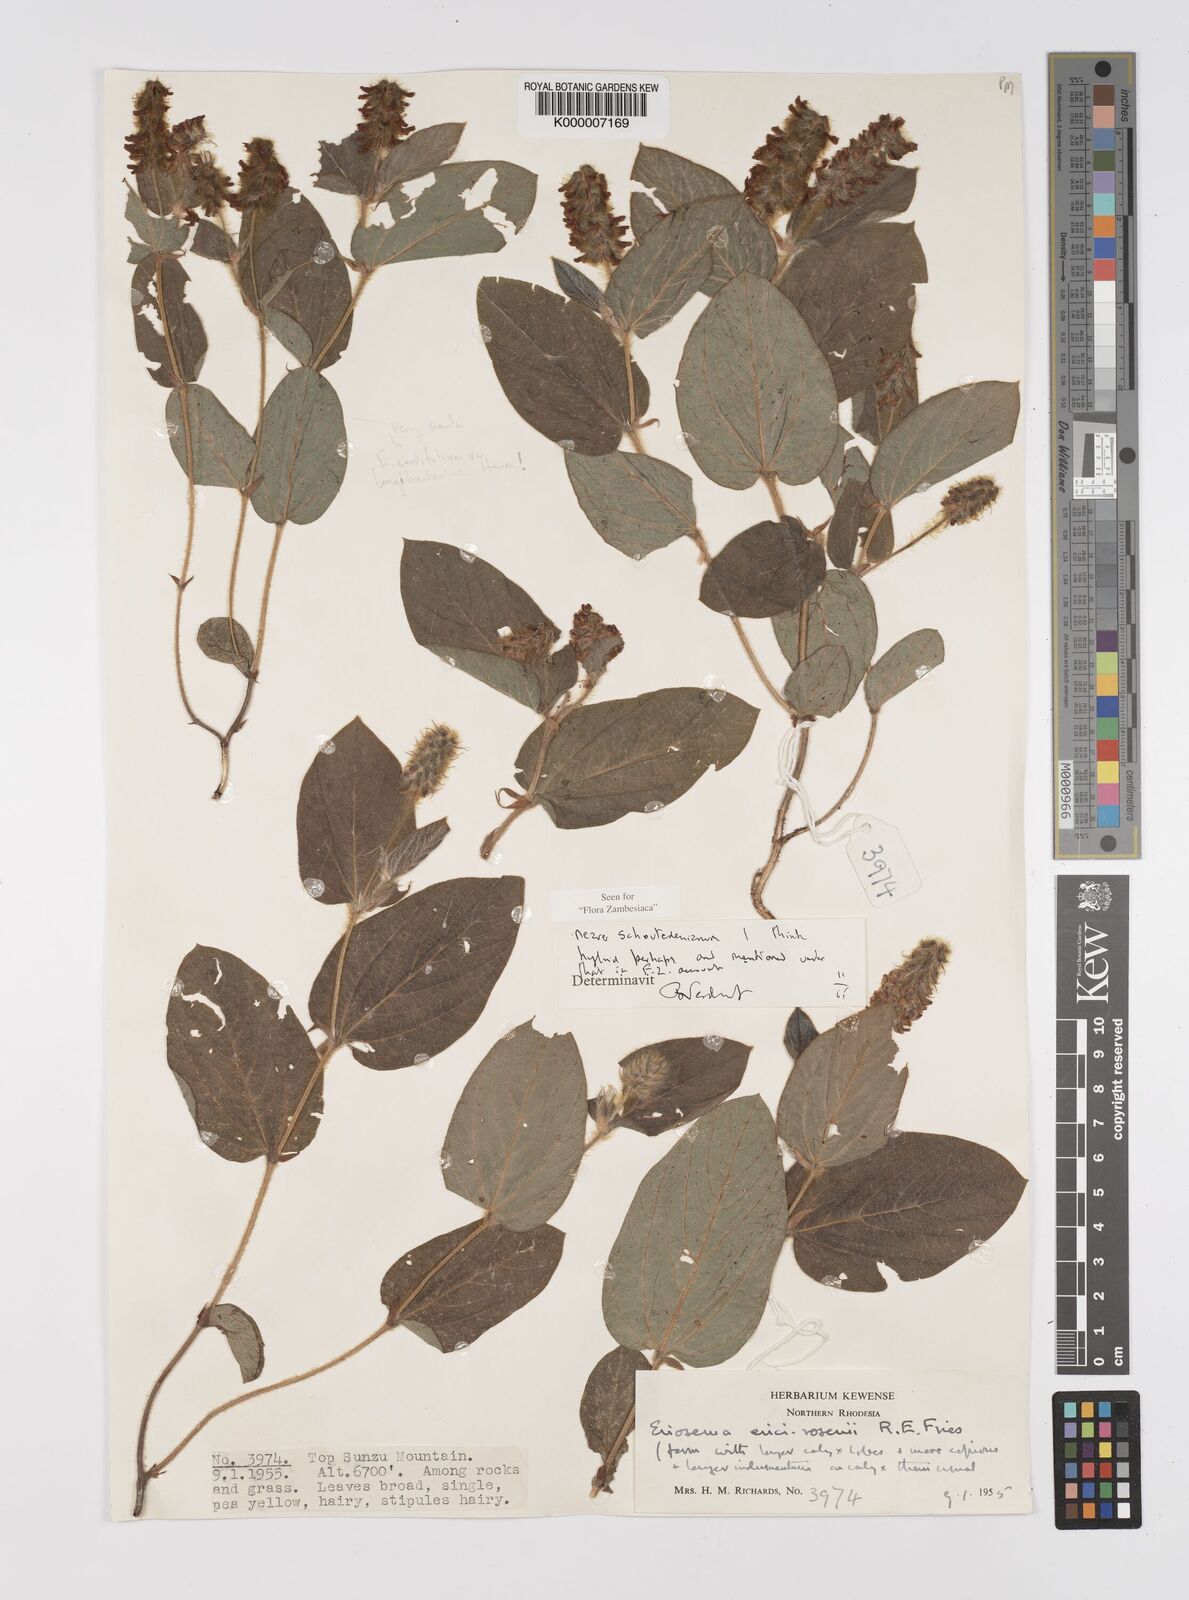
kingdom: Plantae
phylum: Tracheophyta
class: Magnoliopsida
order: Fabales
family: Fabaceae
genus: Eriosema
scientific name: Eriosema verdickii
